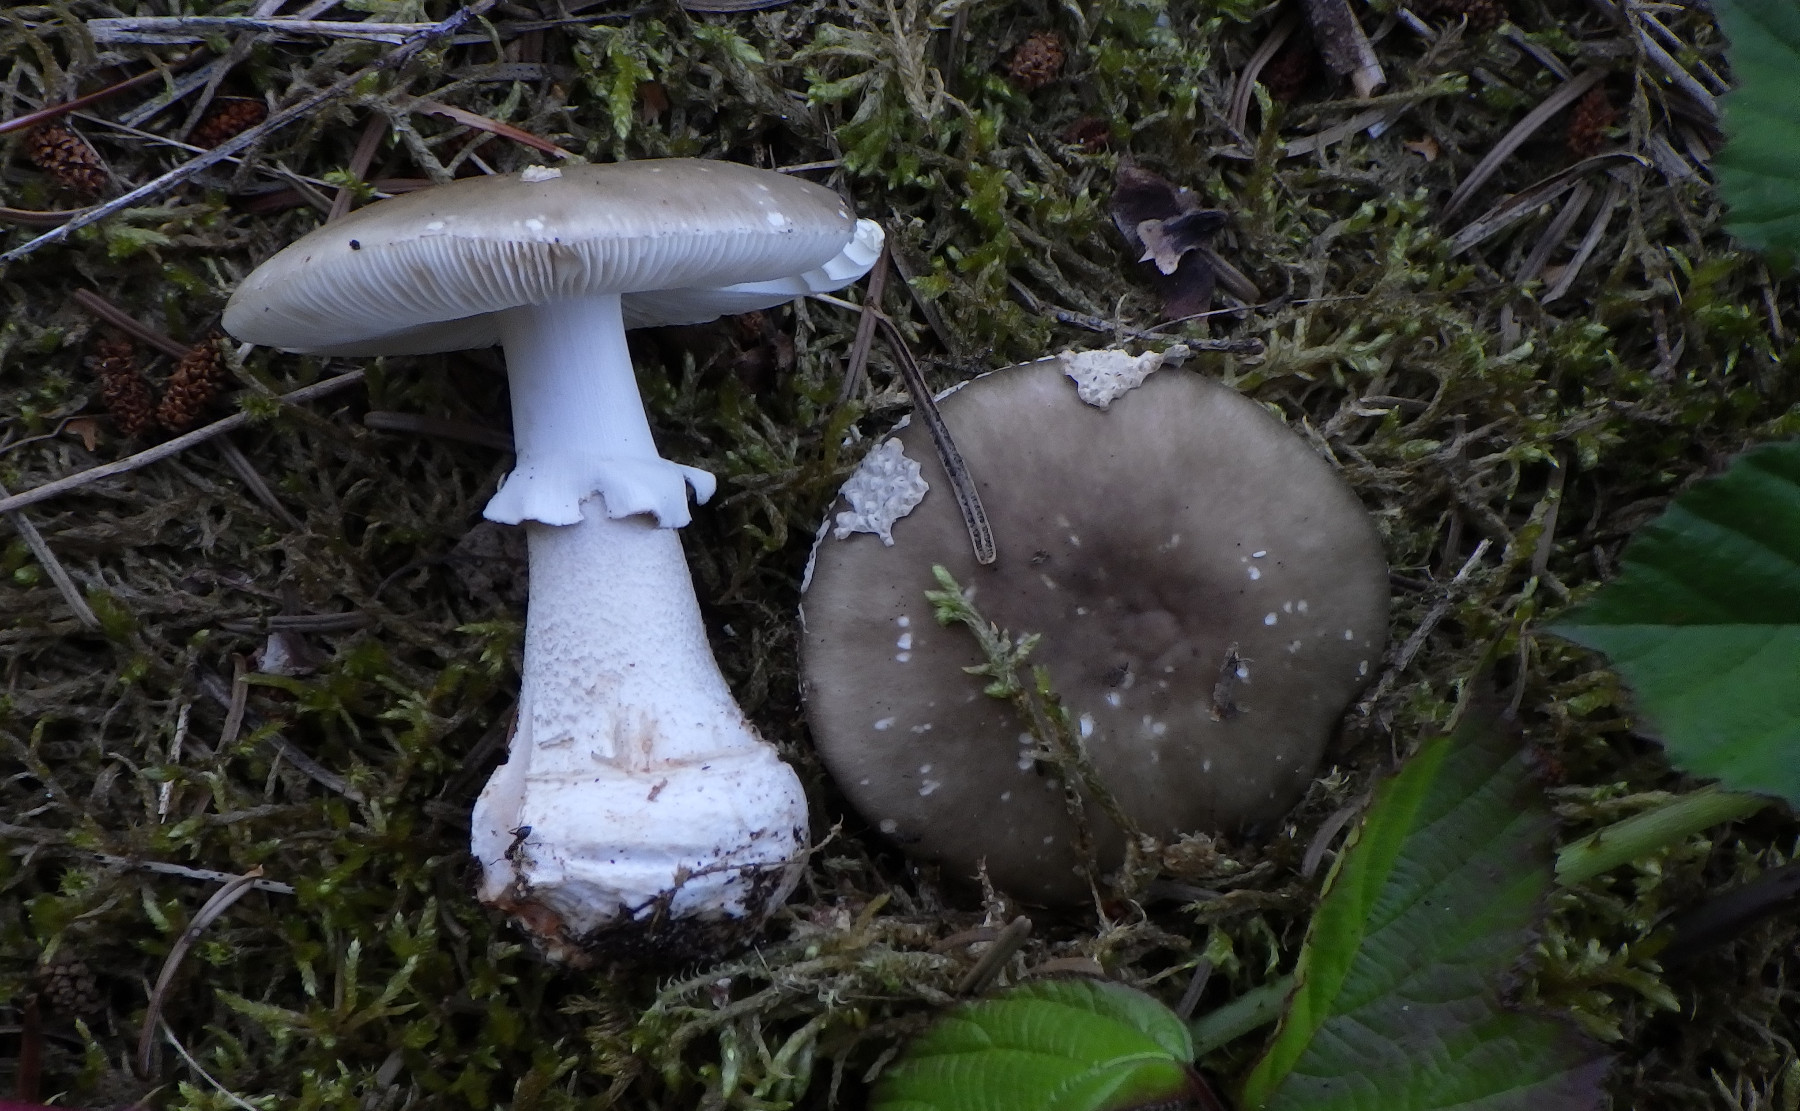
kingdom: Fungi
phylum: Basidiomycota
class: Agaricomycetes
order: Agaricales
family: Amanitaceae
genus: Amanita
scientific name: Amanita
